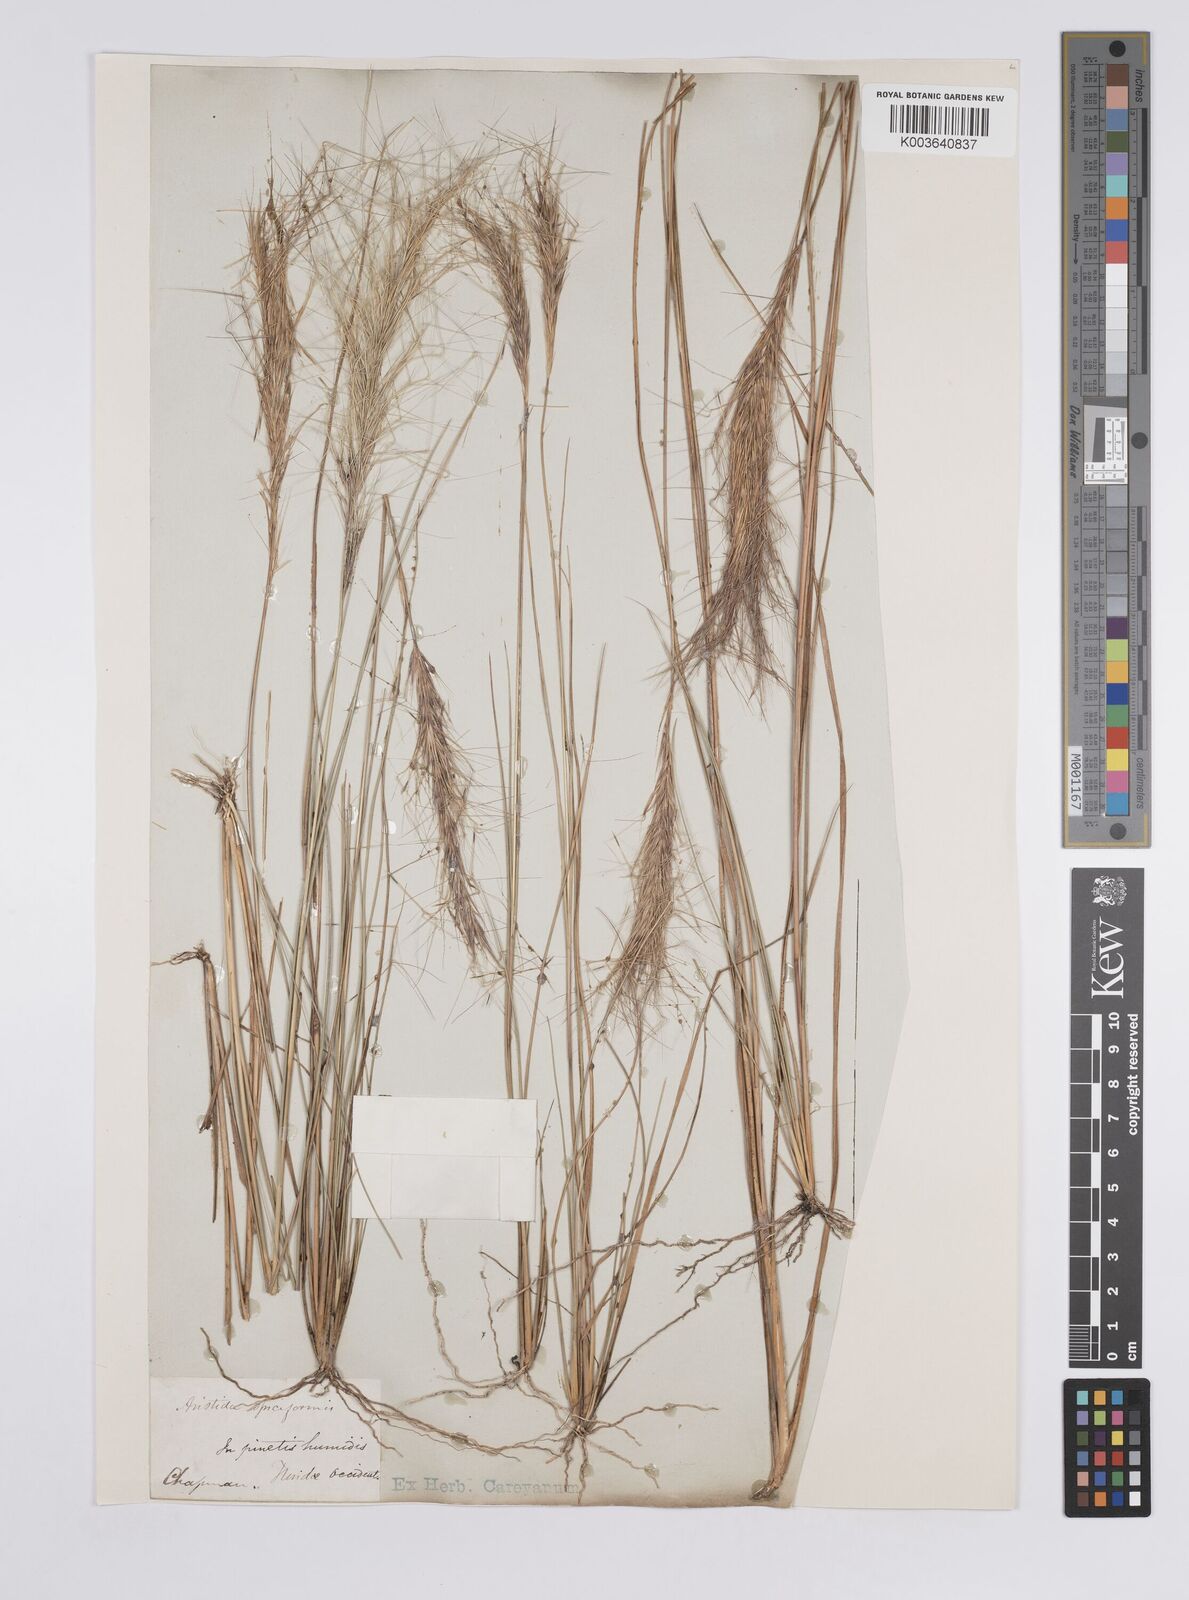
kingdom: Plantae
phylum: Tracheophyta
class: Liliopsida
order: Poales
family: Poaceae
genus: Aristida
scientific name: Aristida spiciformis
